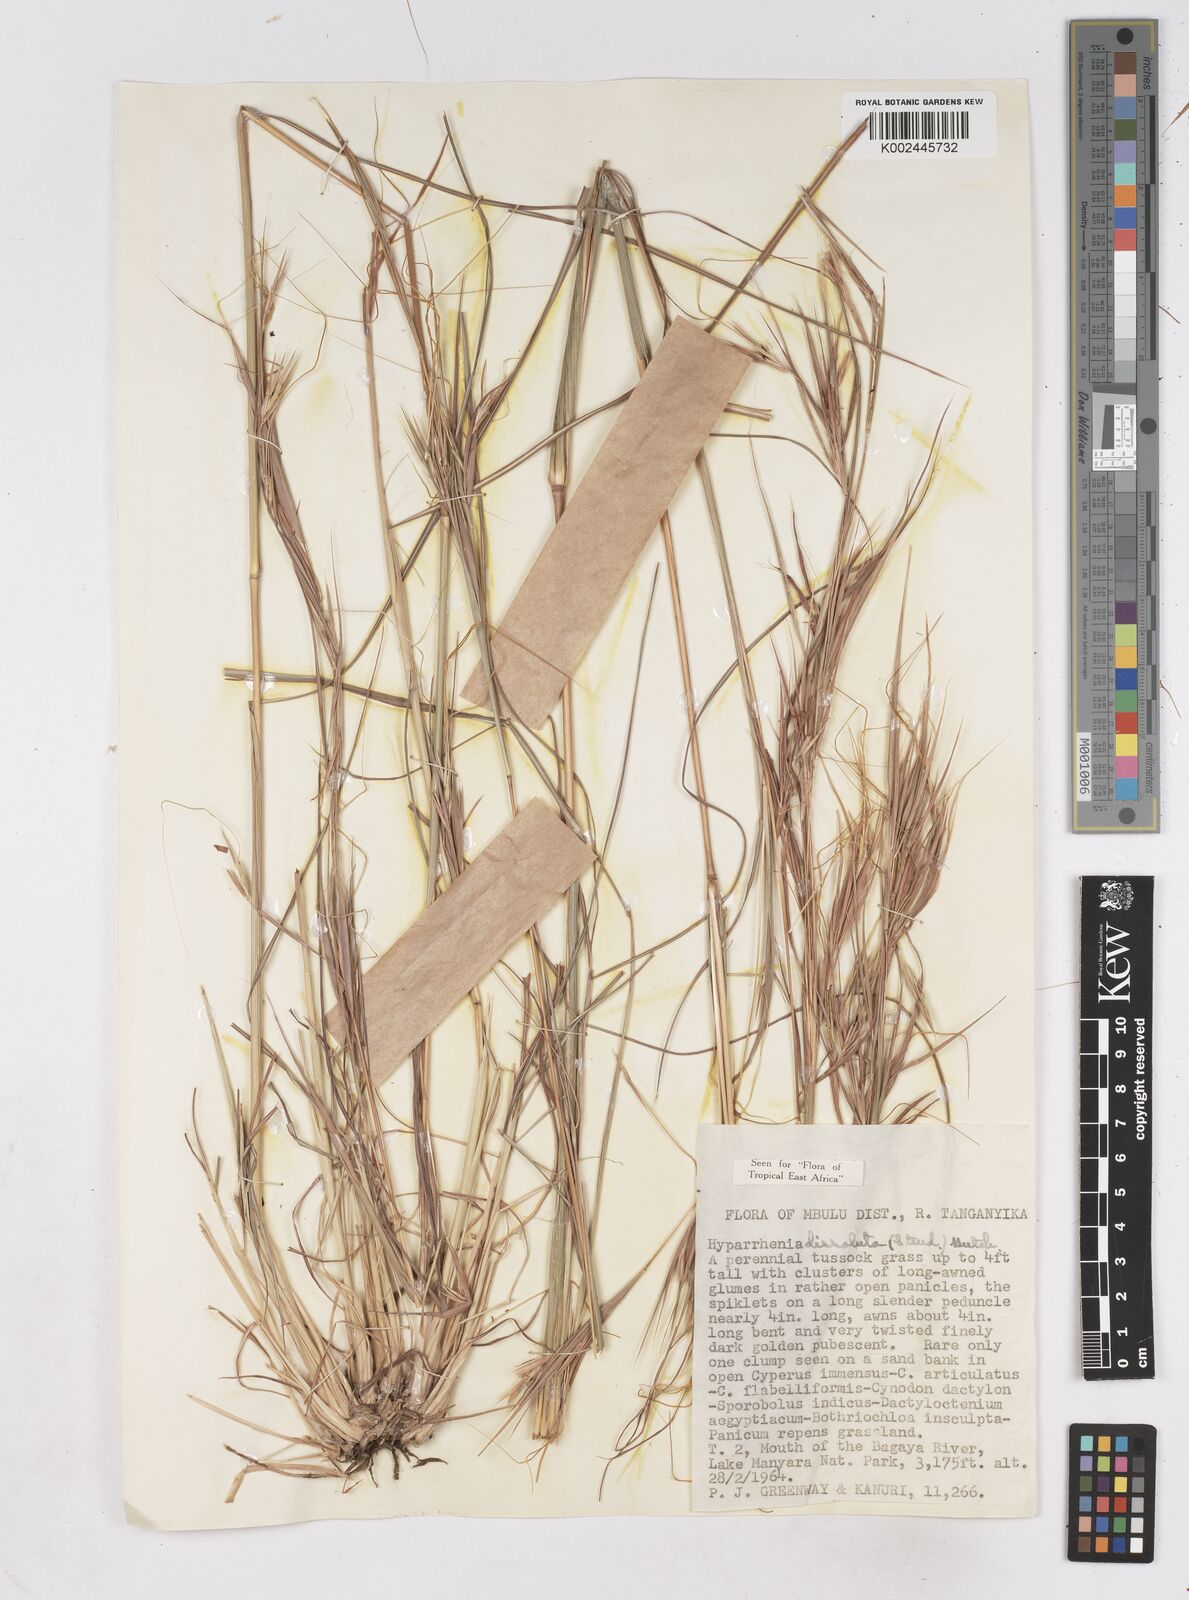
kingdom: Plantae
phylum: Tracheophyta
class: Liliopsida
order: Poales
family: Poaceae
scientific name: Poaceae
